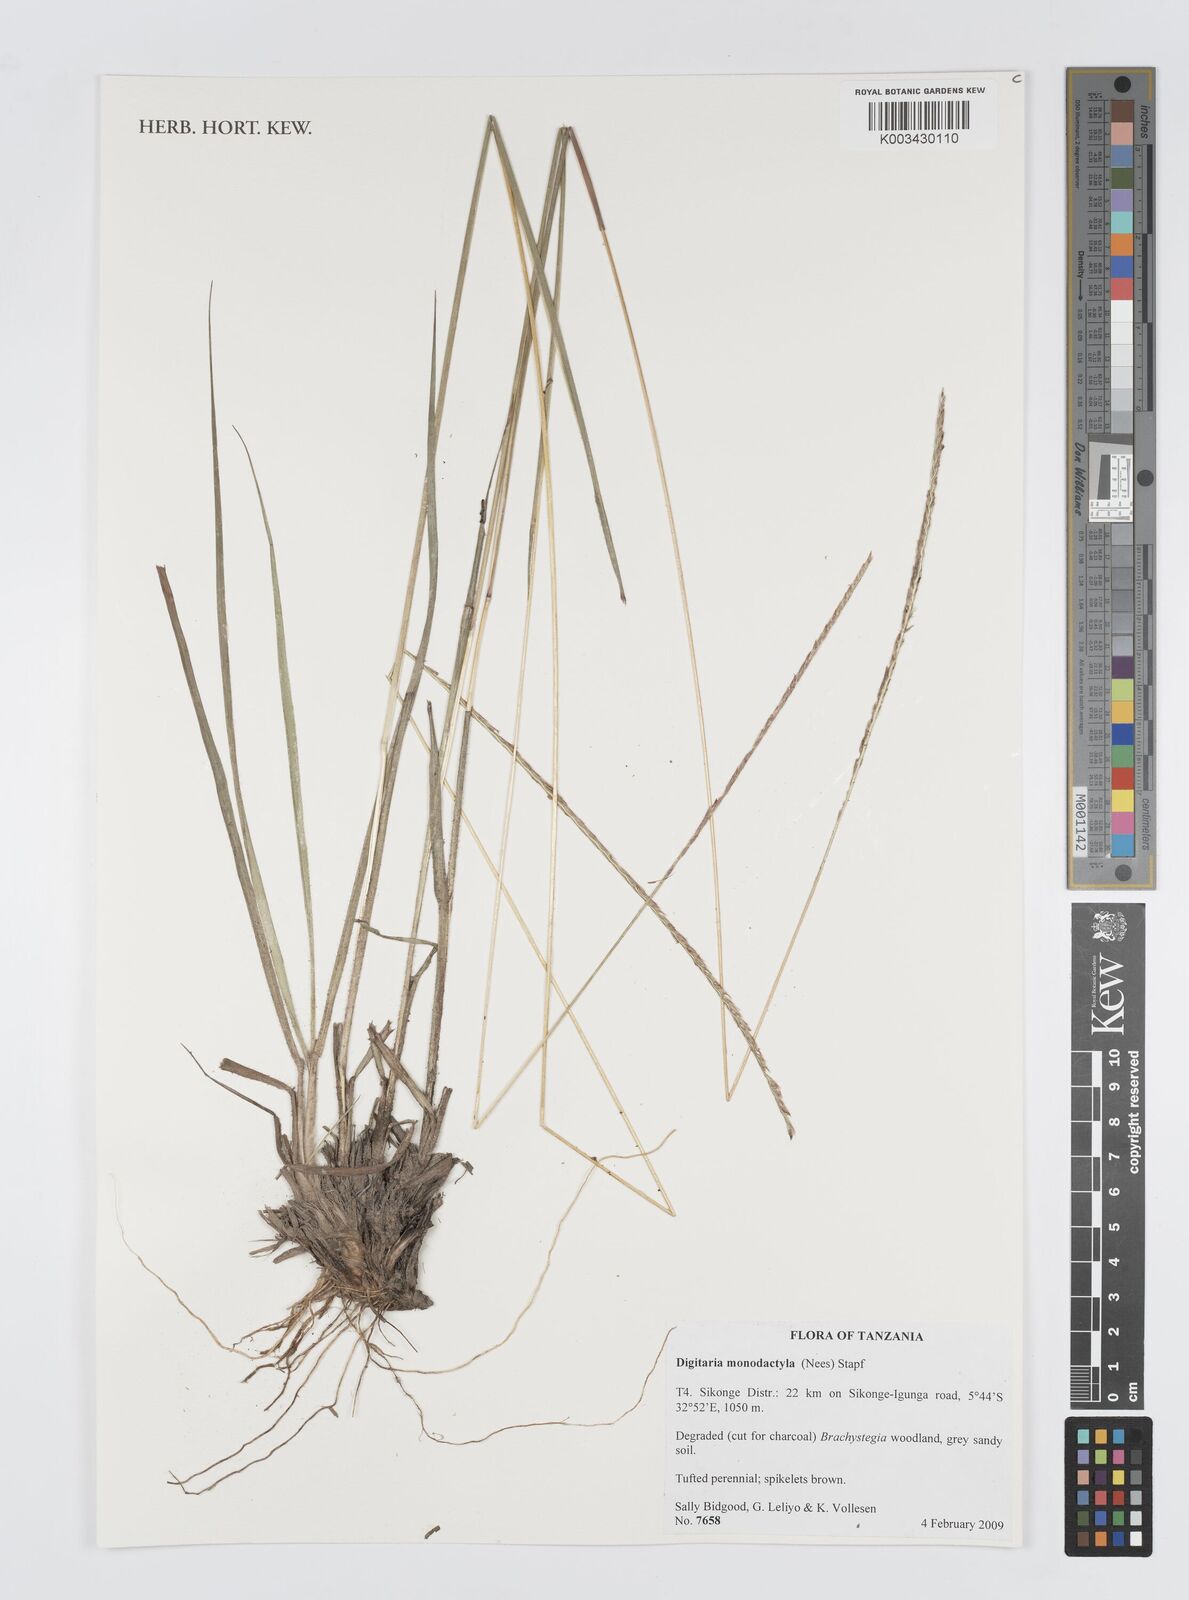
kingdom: Plantae
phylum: Tracheophyta
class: Liliopsida
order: Poales
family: Poaceae
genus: Digitaria
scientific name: Digitaria monodactyla
